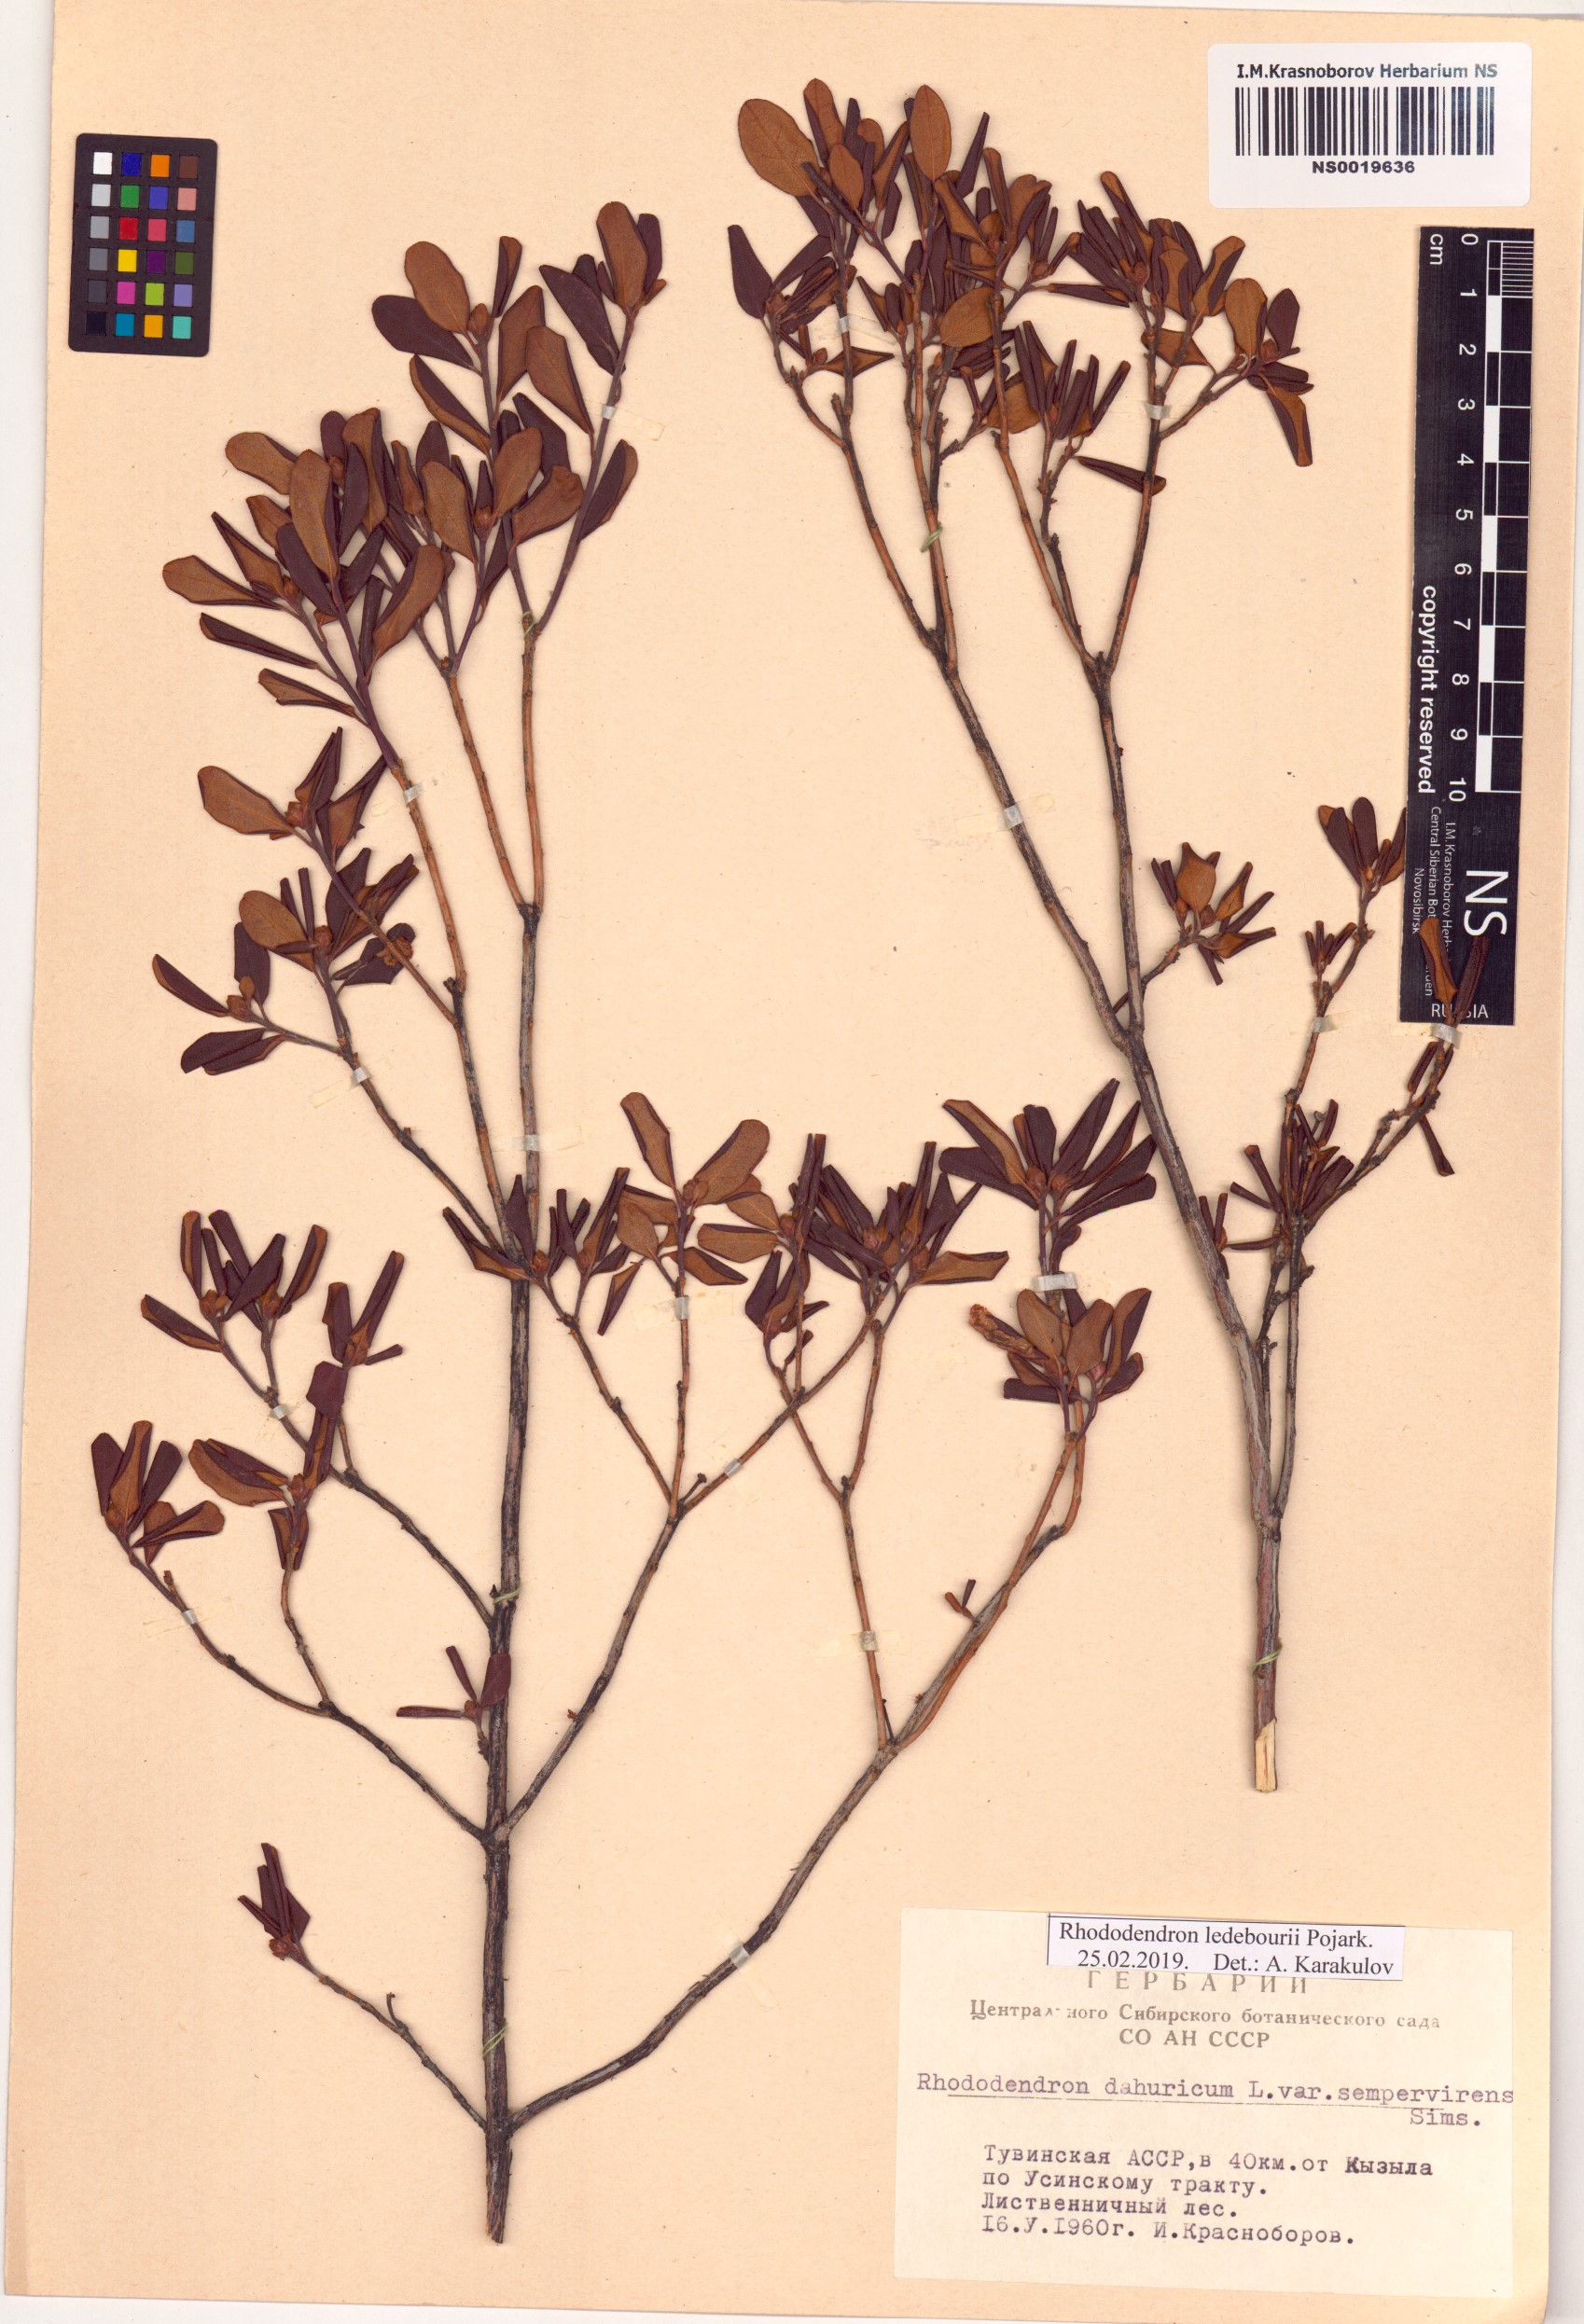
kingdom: Plantae
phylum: Tracheophyta
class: Magnoliopsida
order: Ericales
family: Ericaceae
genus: Rhododendron
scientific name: Rhododendron dauricum
